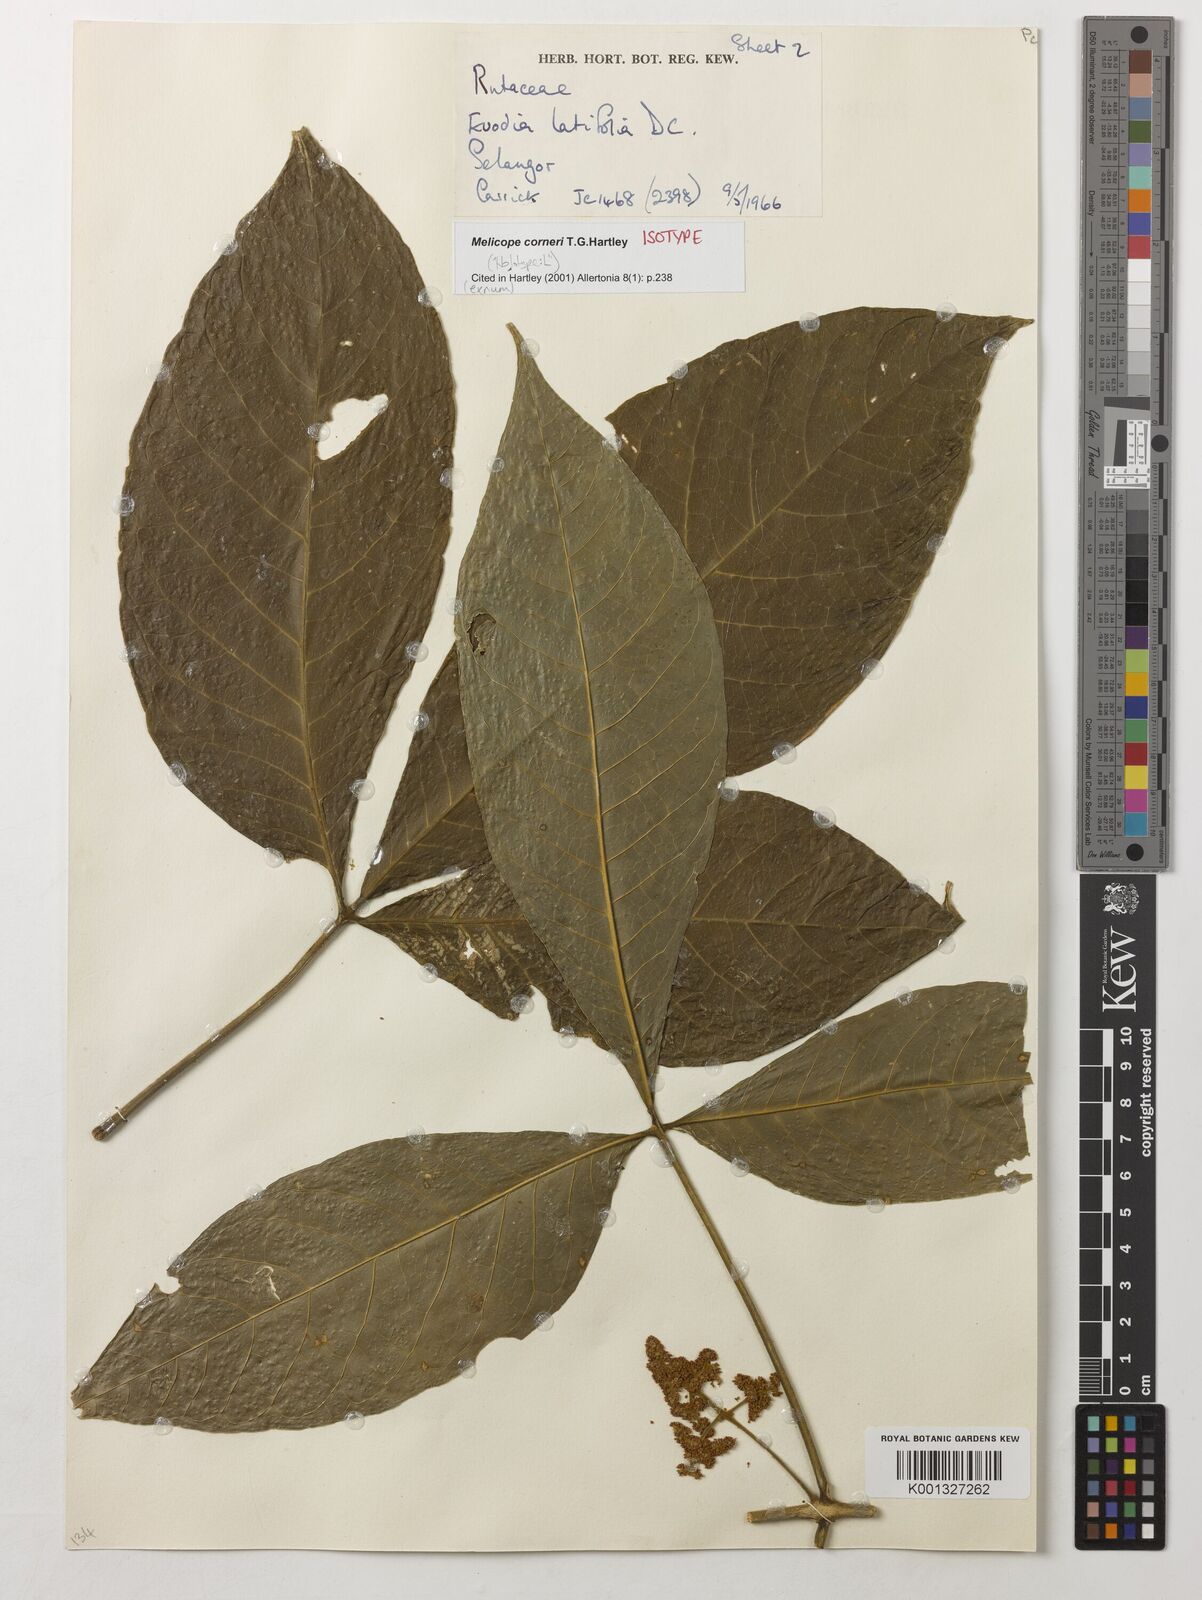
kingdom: Plantae
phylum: Tracheophyta
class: Magnoliopsida
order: Sapindales
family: Rutaceae
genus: Melicope
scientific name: Melicope corneri
